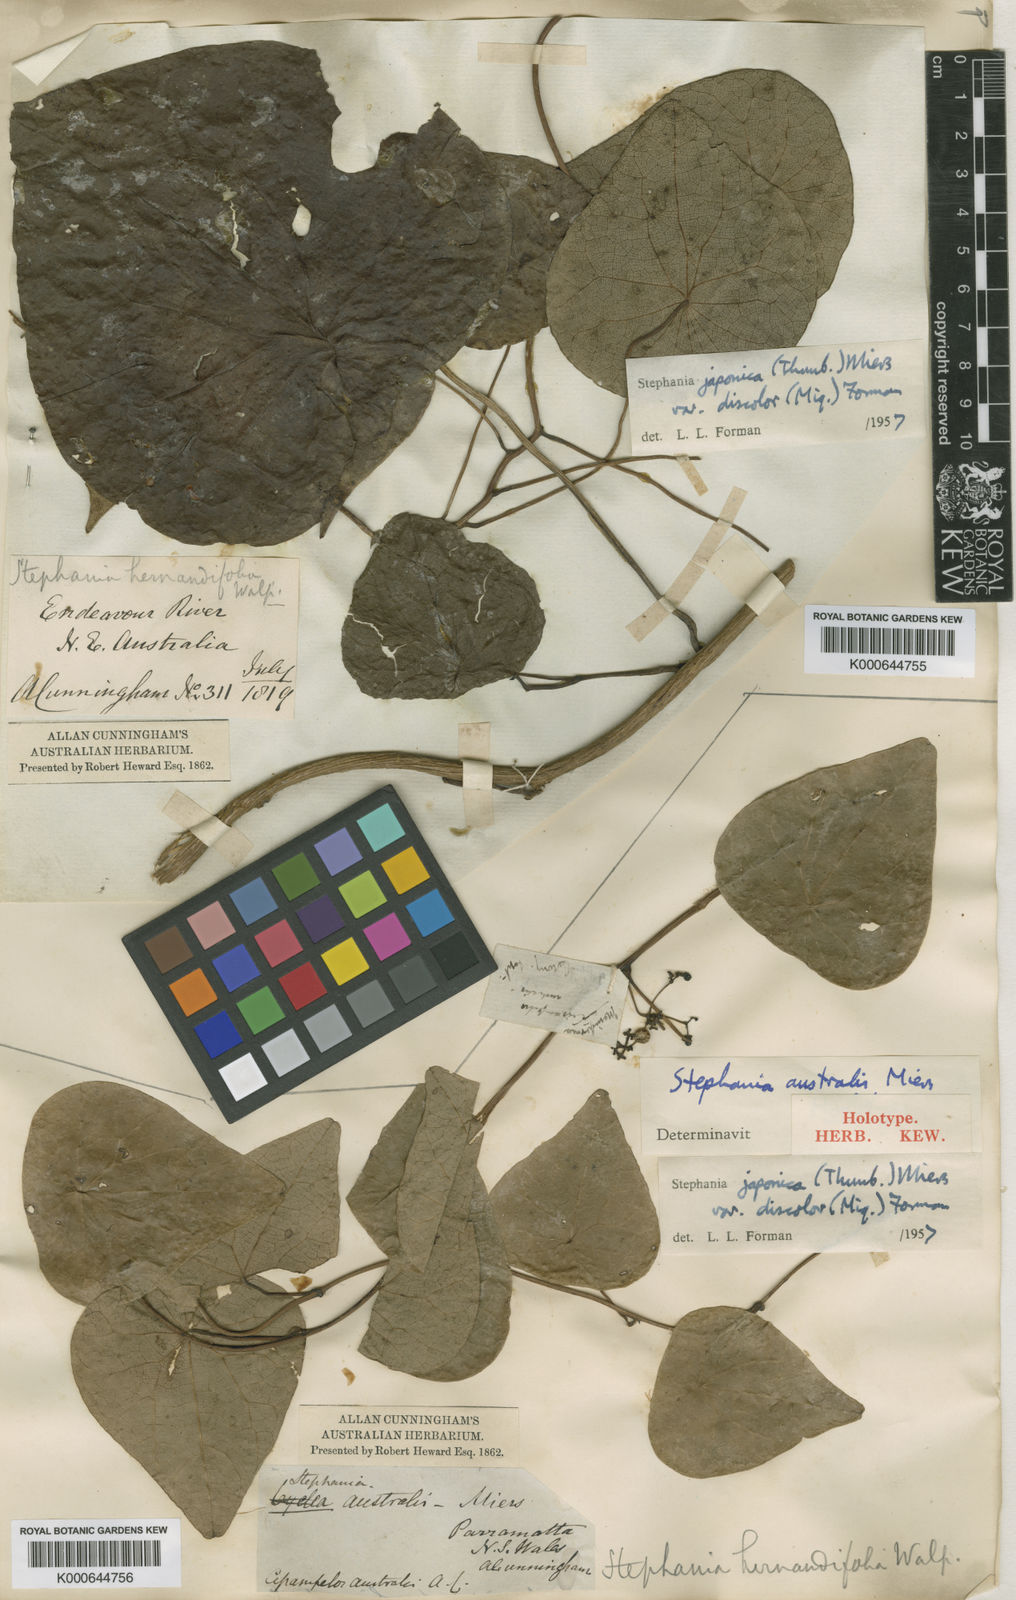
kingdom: Plantae
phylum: Tracheophyta
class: Magnoliopsida
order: Ranunculales
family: Menispermaceae
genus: Stephania
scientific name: Stephania japonica
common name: Snake vine
